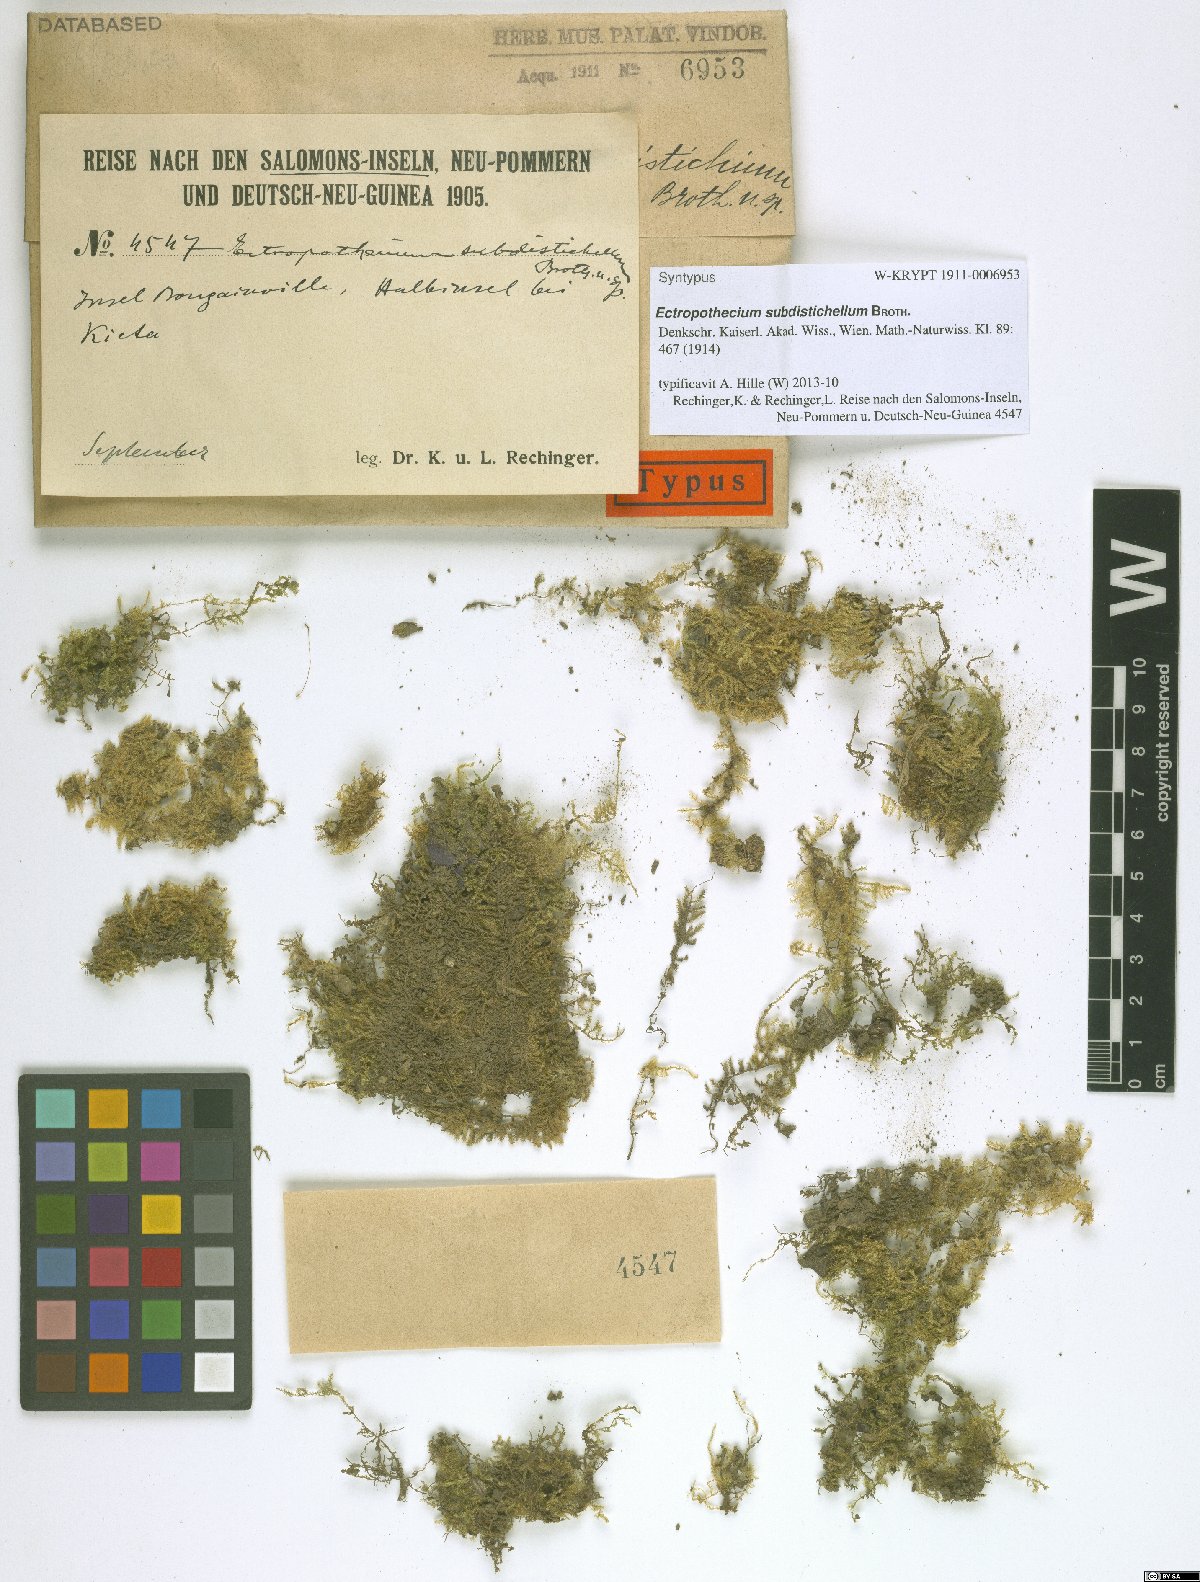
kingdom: Plantae
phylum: Bryophyta
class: Bryopsida
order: Hypnales
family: Hypnaceae
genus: Ectropothecium
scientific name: Ectropothecium subdistichellum
